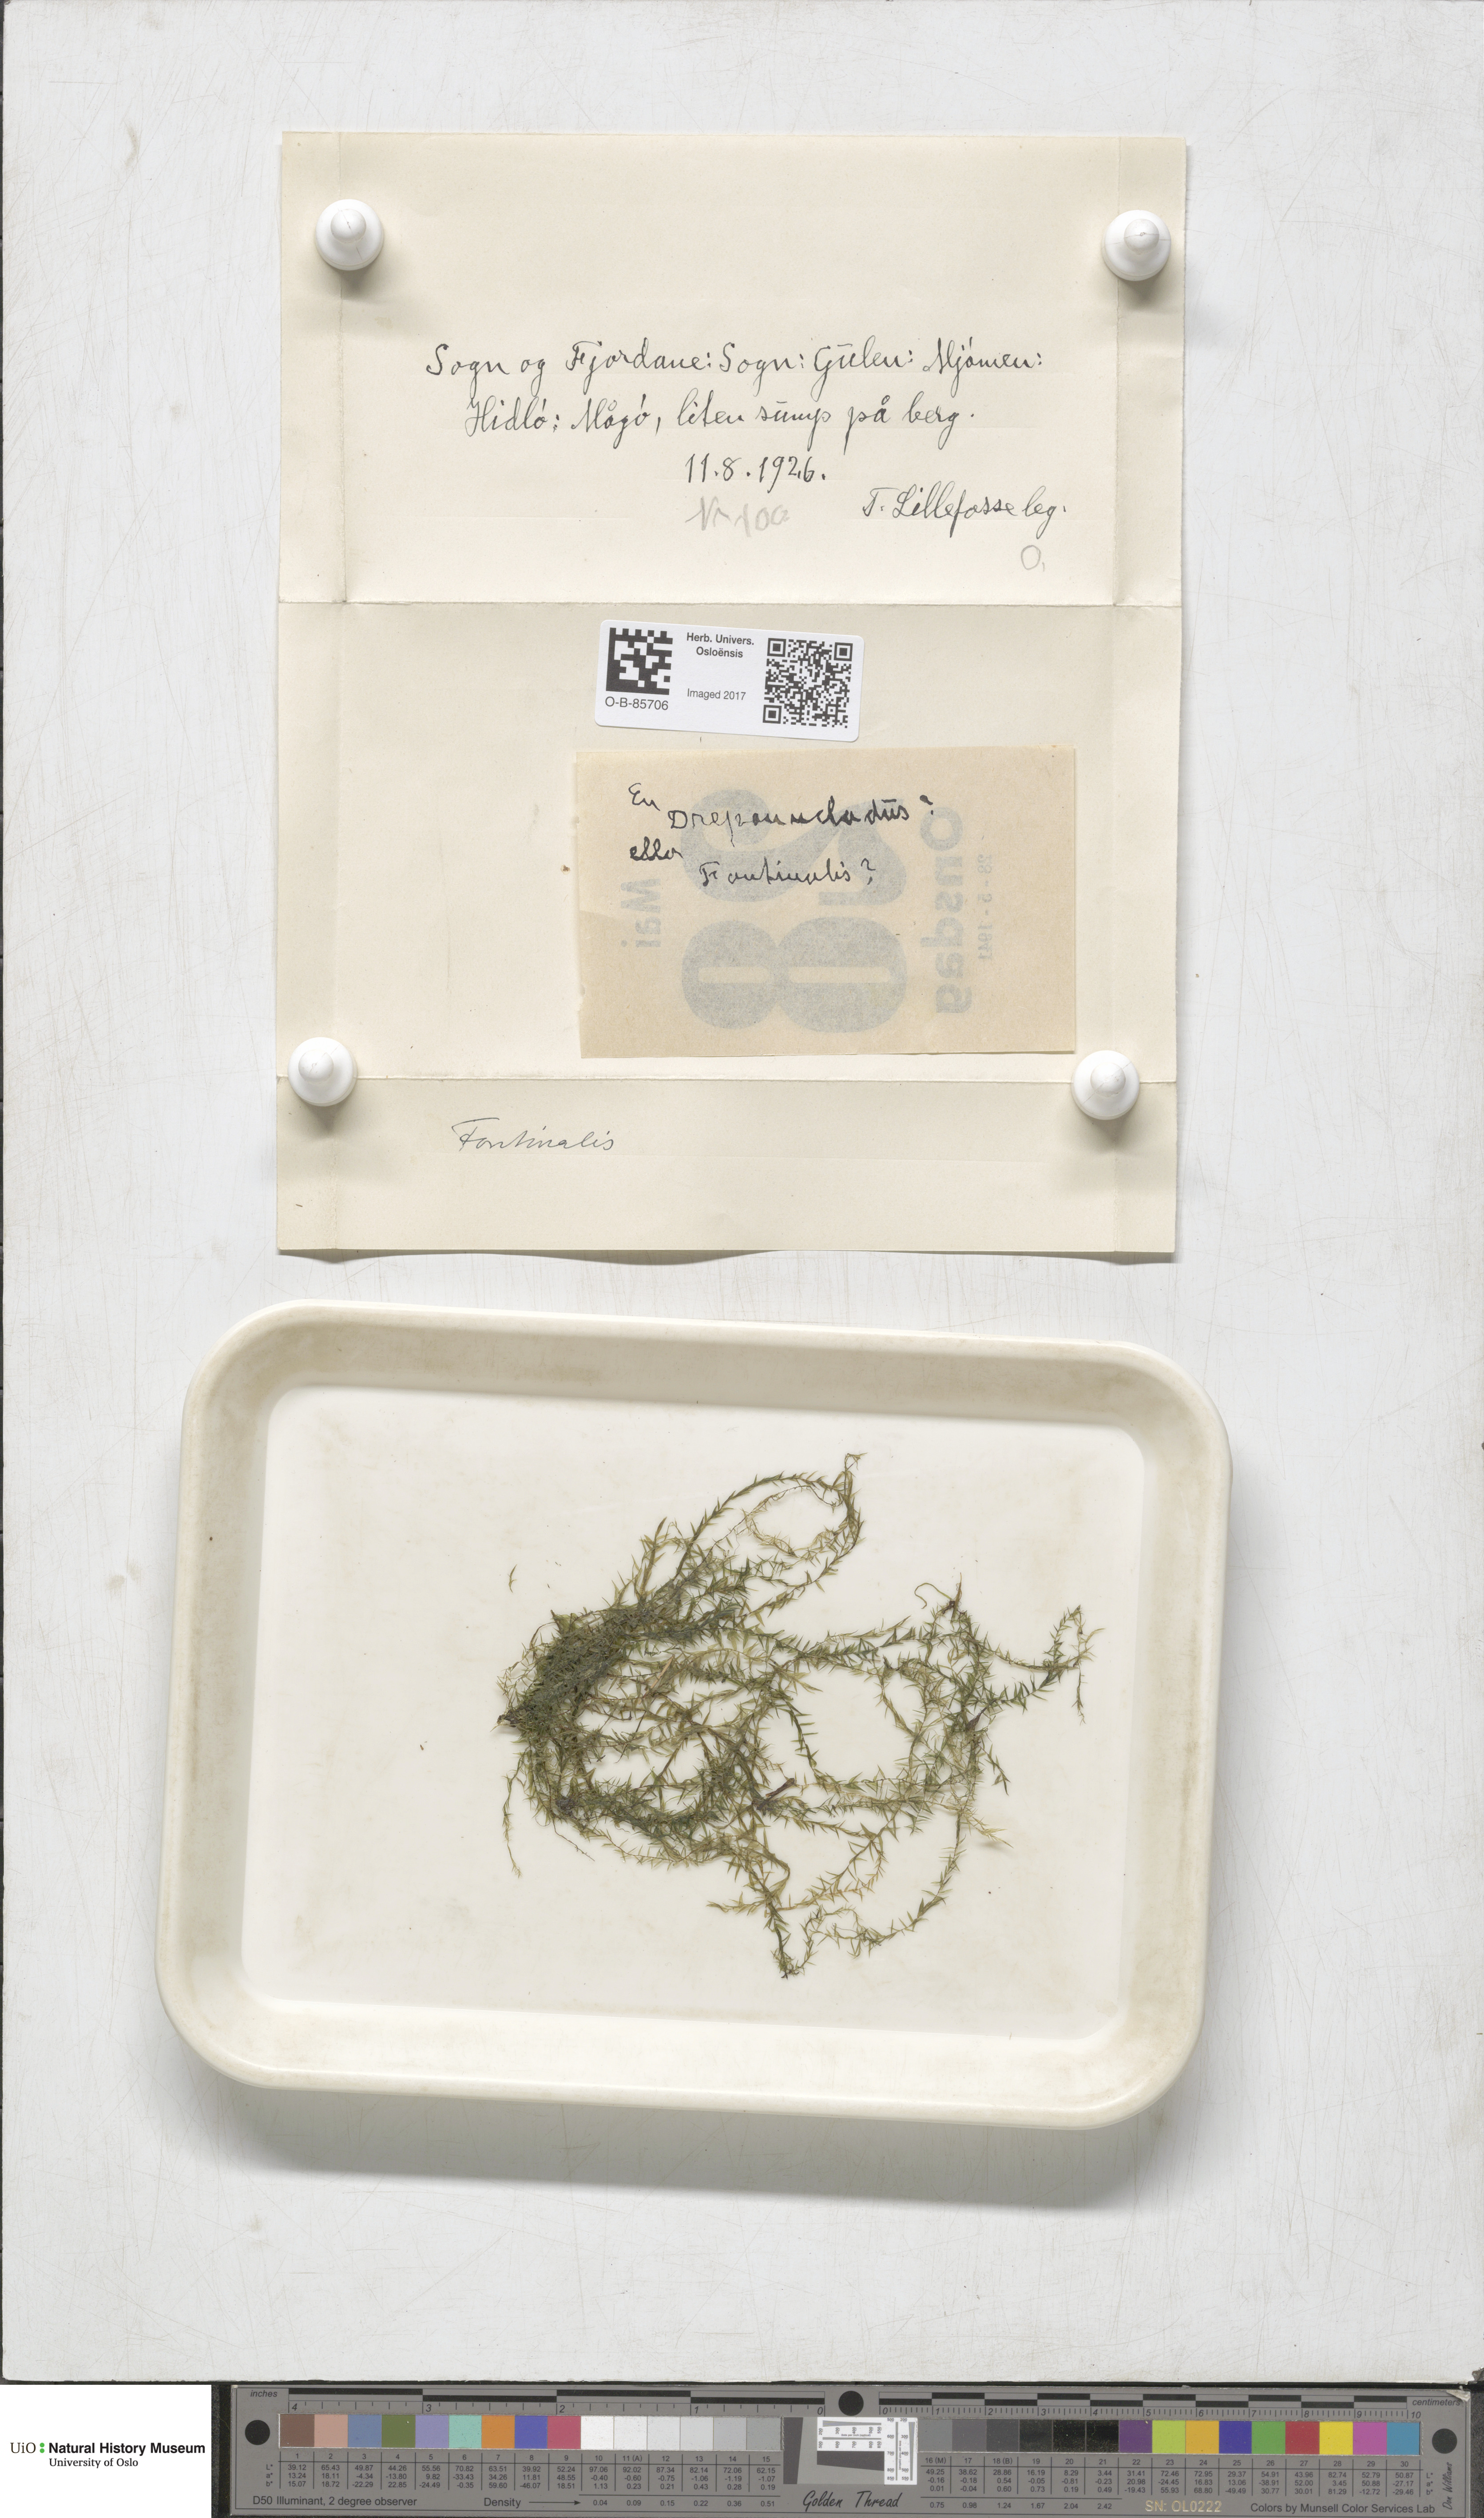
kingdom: Plantae
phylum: Bryophyta
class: Bryopsida
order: Hypnales
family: Fontinalaceae
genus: Fontinalis
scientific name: Fontinalis
